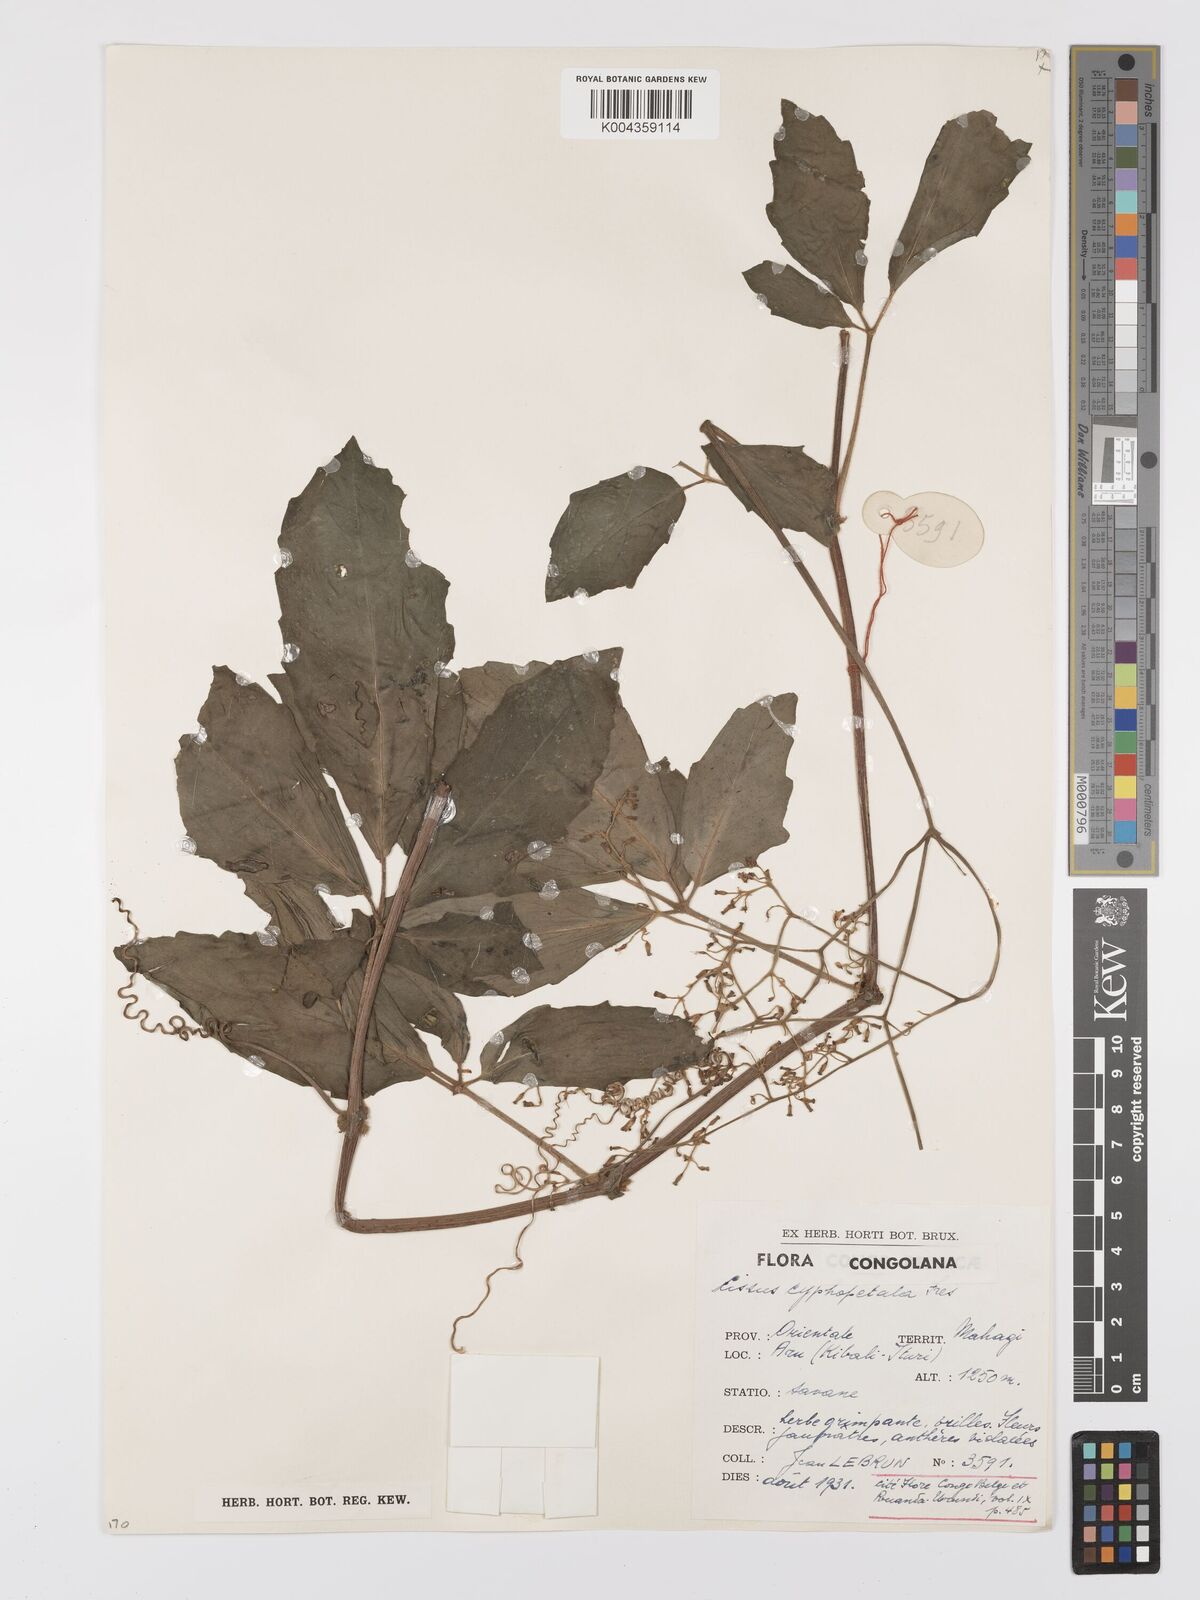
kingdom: Plantae
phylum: Tracheophyta
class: Magnoliopsida
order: Vitales
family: Vitaceae
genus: Cyphostemma
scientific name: Cyphostemma cyphopetalum
